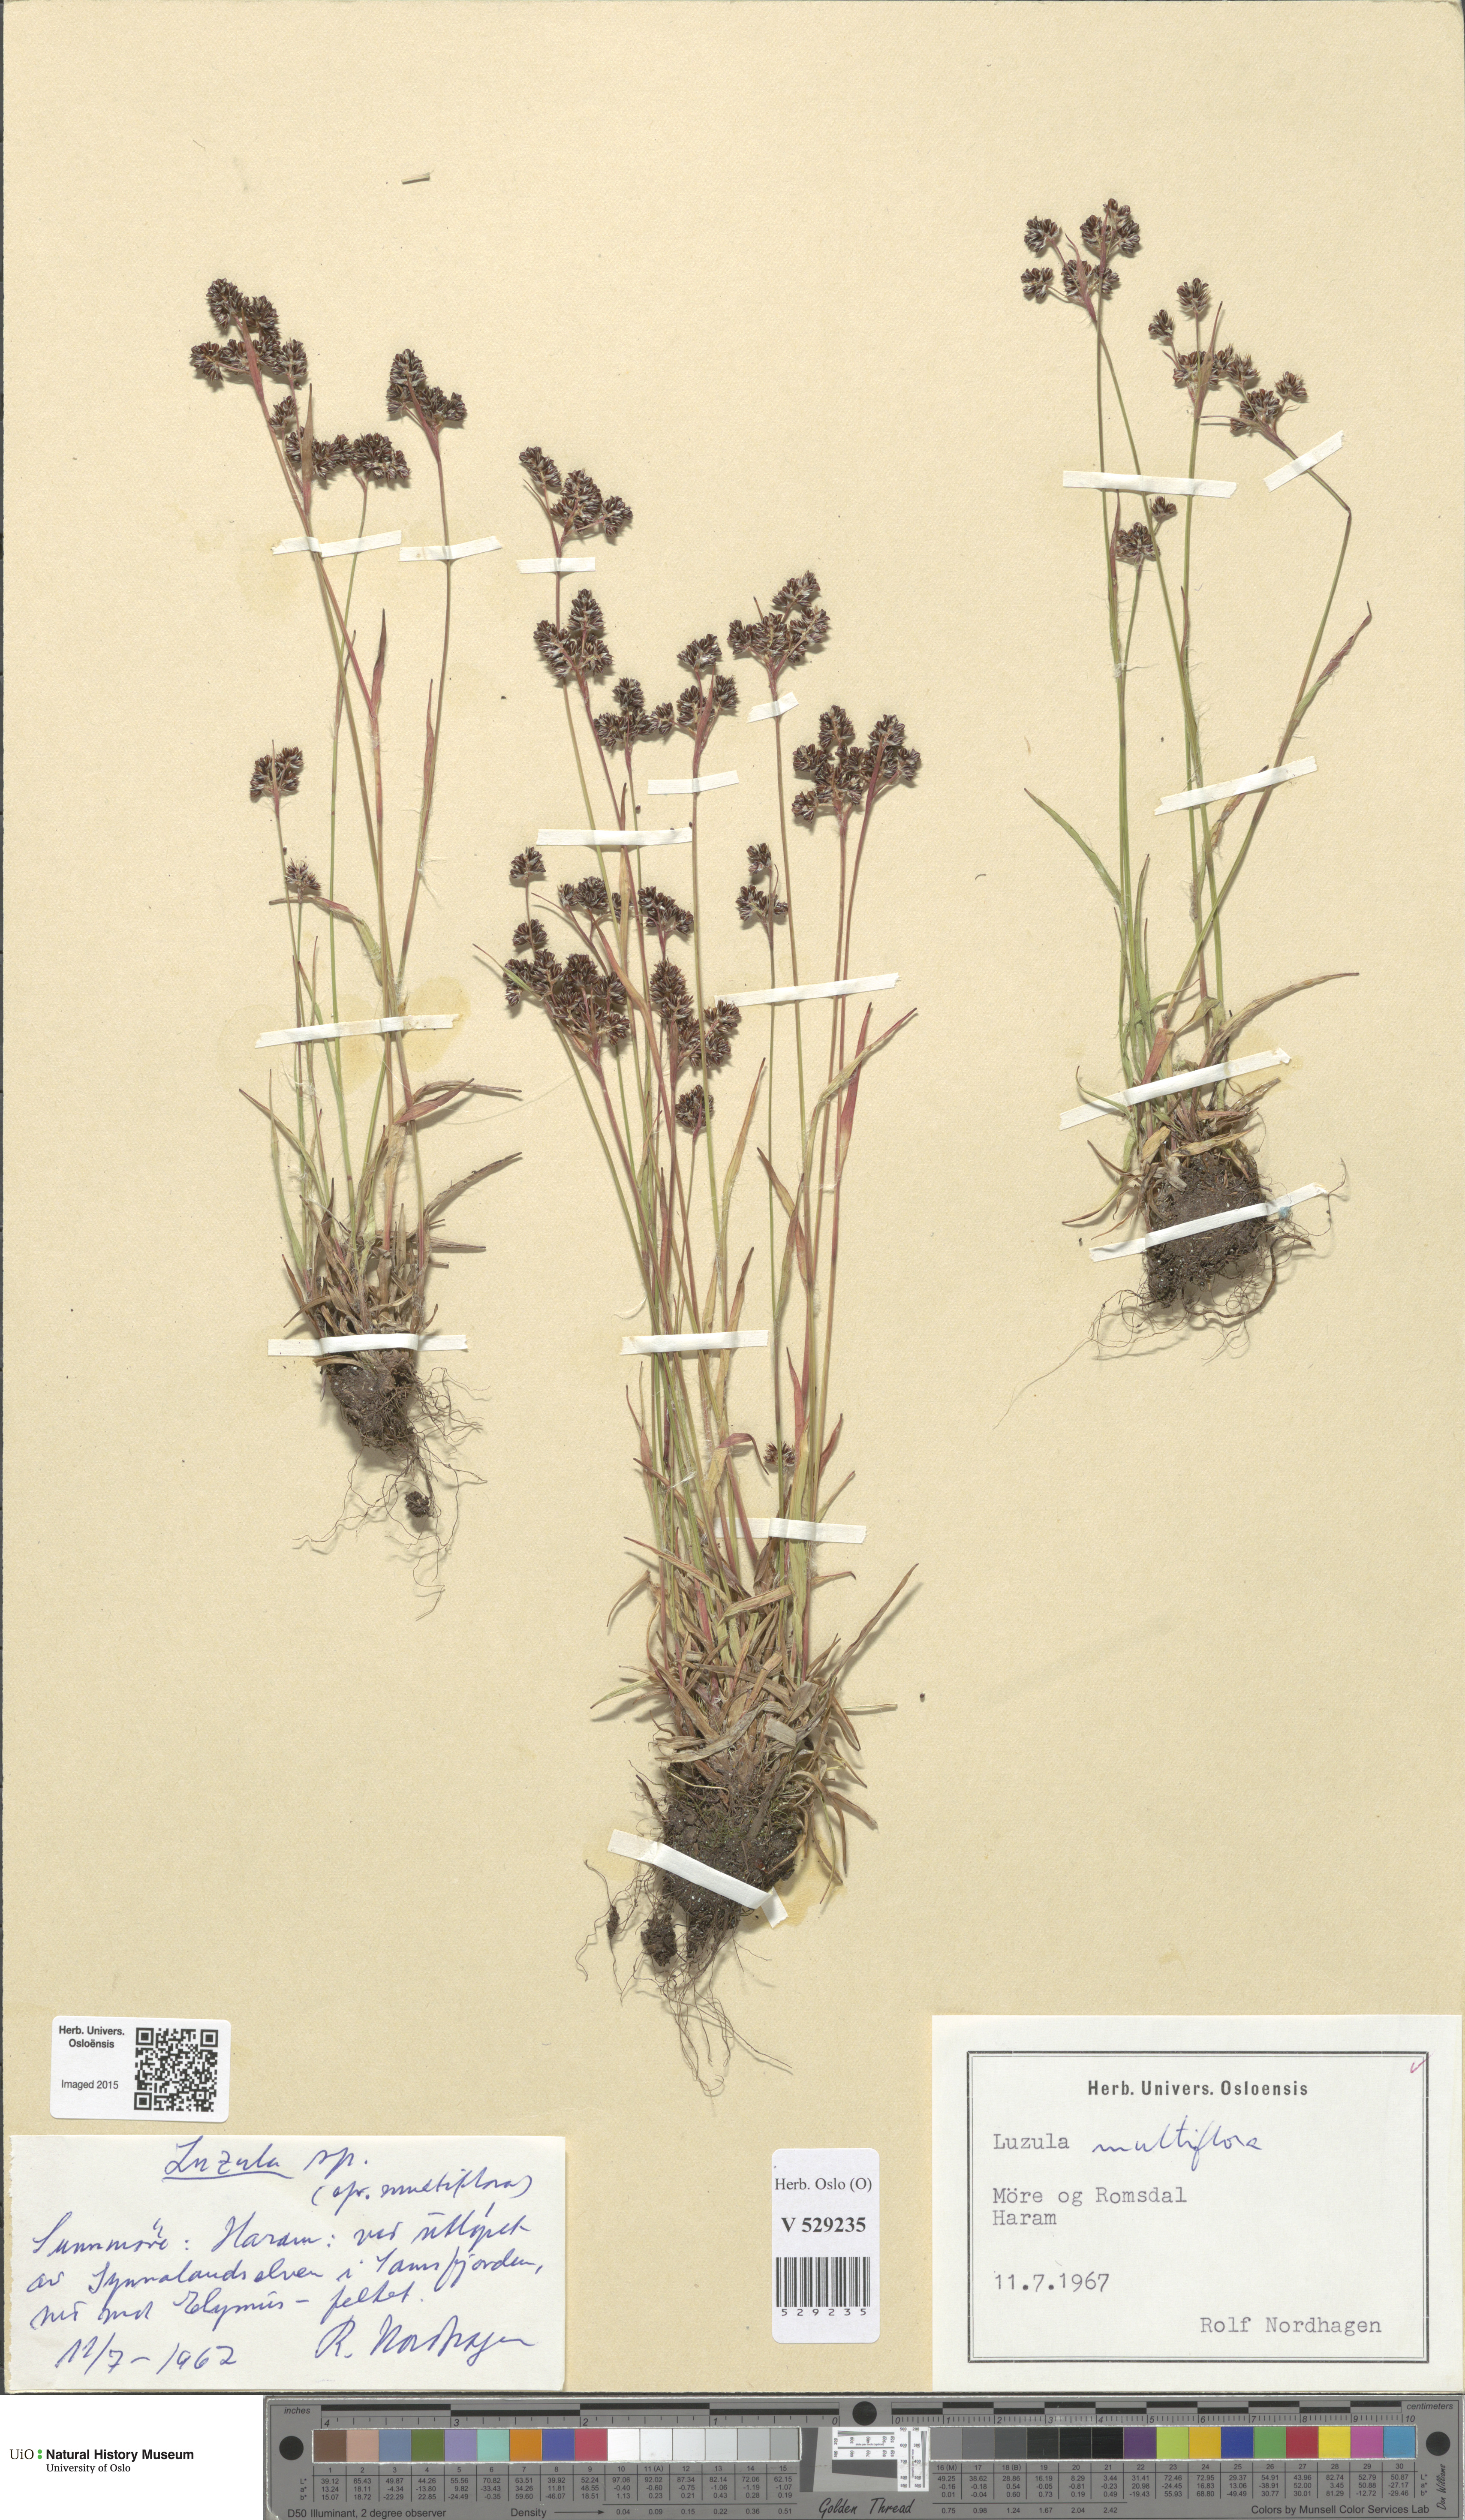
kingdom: Plantae
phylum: Tracheophyta
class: Liliopsida
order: Poales
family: Juncaceae
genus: Luzula
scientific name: Luzula multiflora
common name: Heath wood-rush
